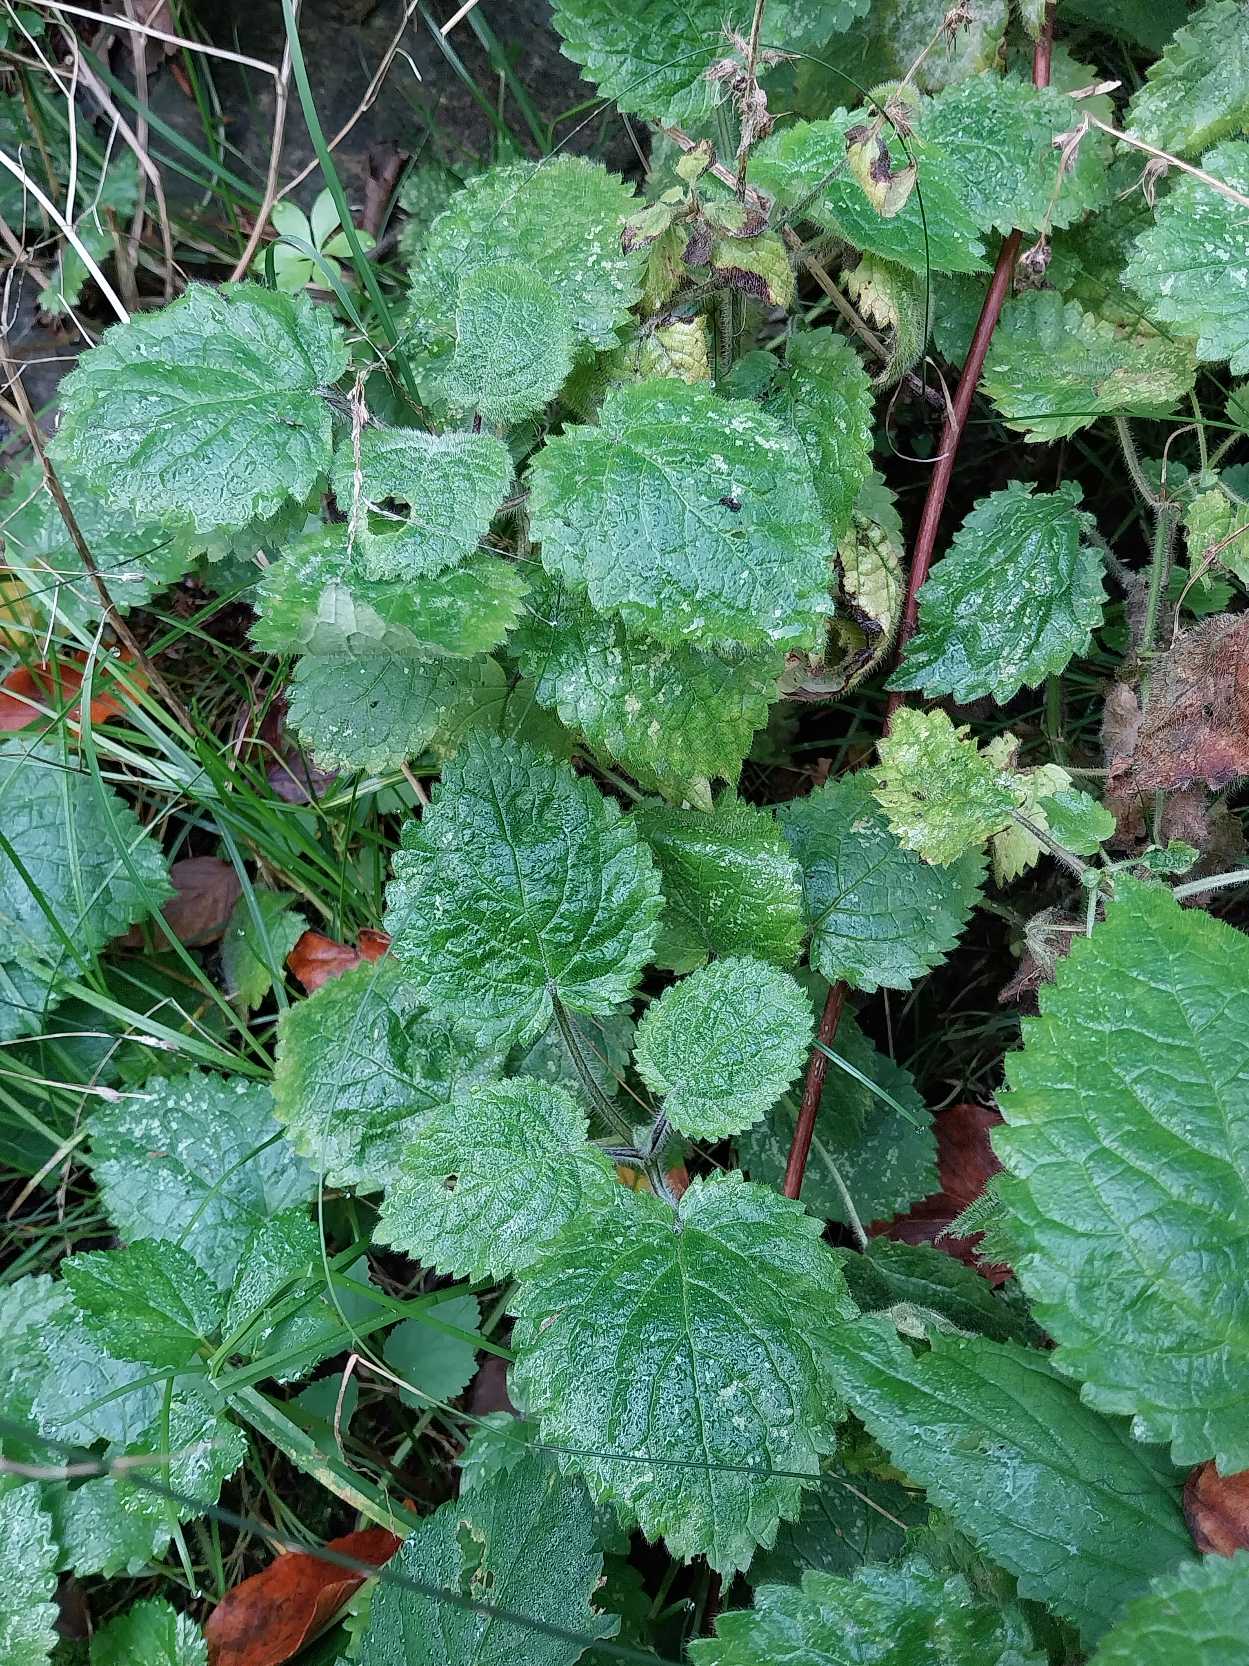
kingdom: Plantae
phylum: Tracheophyta
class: Magnoliopsida
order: Lamiales
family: Lamiaceae
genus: Stachys
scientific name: Stachys sylvatica
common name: Skov-galtetand
